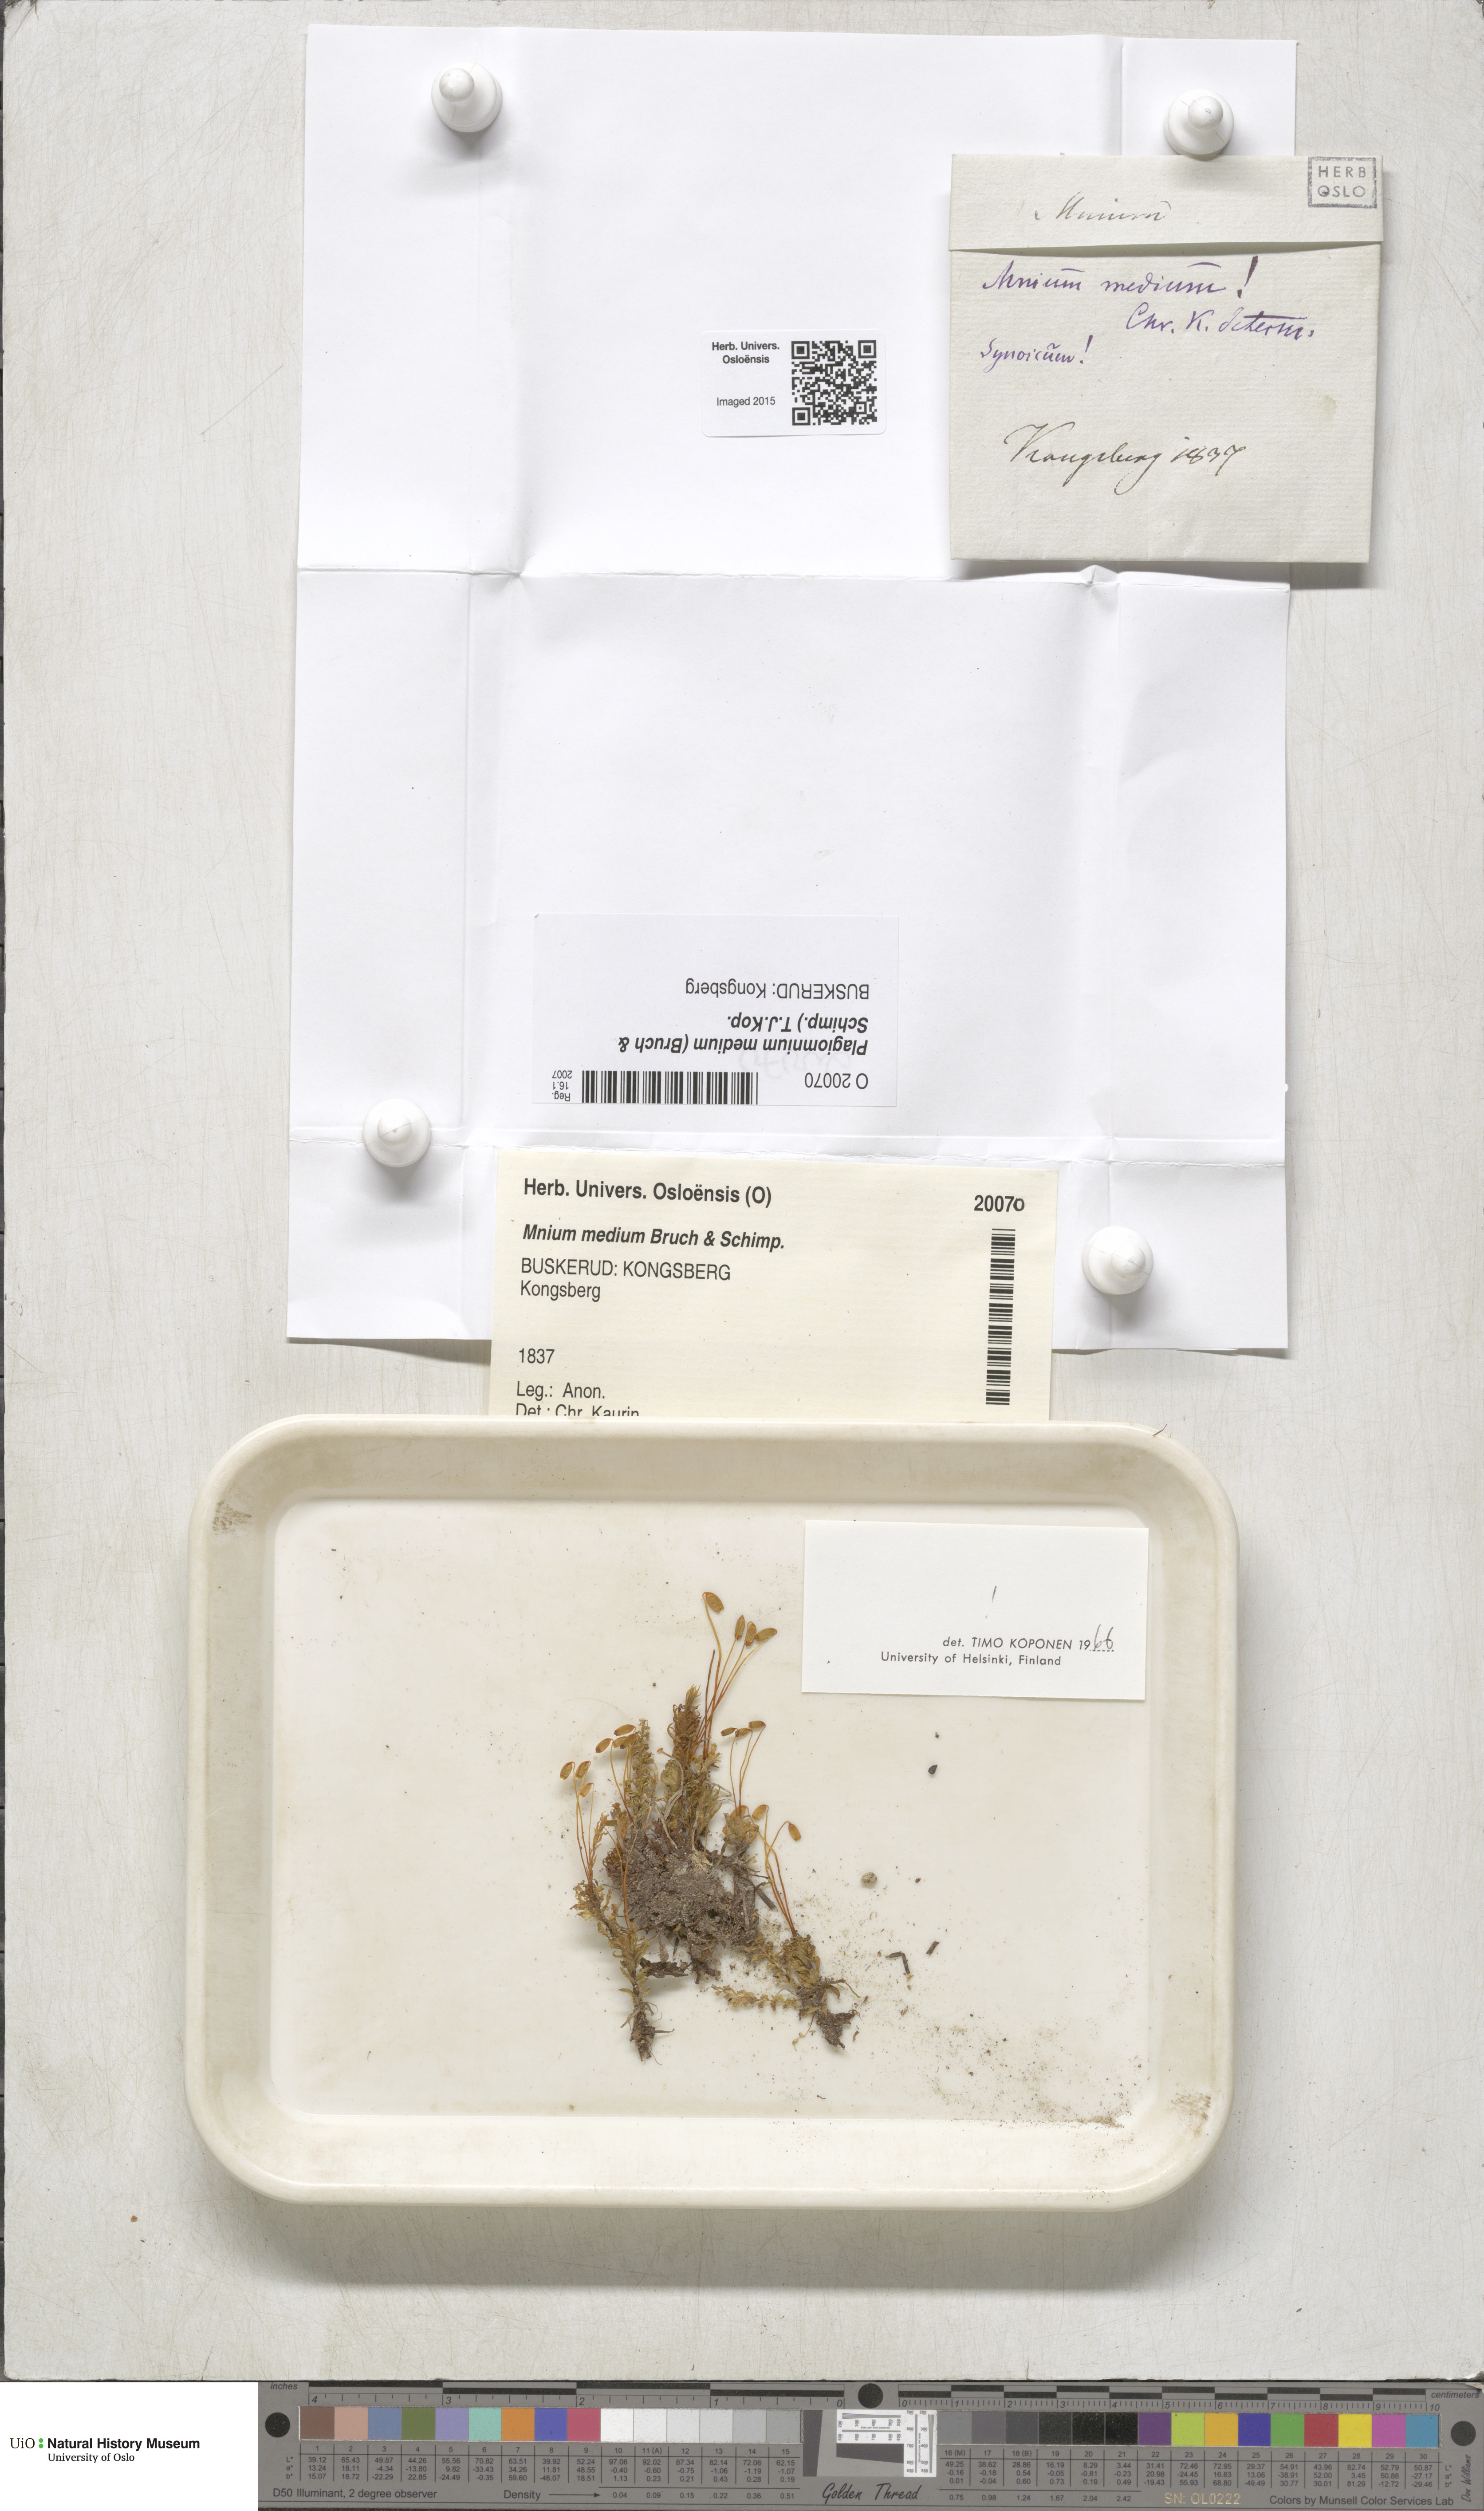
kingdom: Plantae
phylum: Bryophyta
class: Bryopsida
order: Bryales
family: Mniaceae
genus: Plagiomnium
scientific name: Plagiomnium medium
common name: Alpine leafy moss
